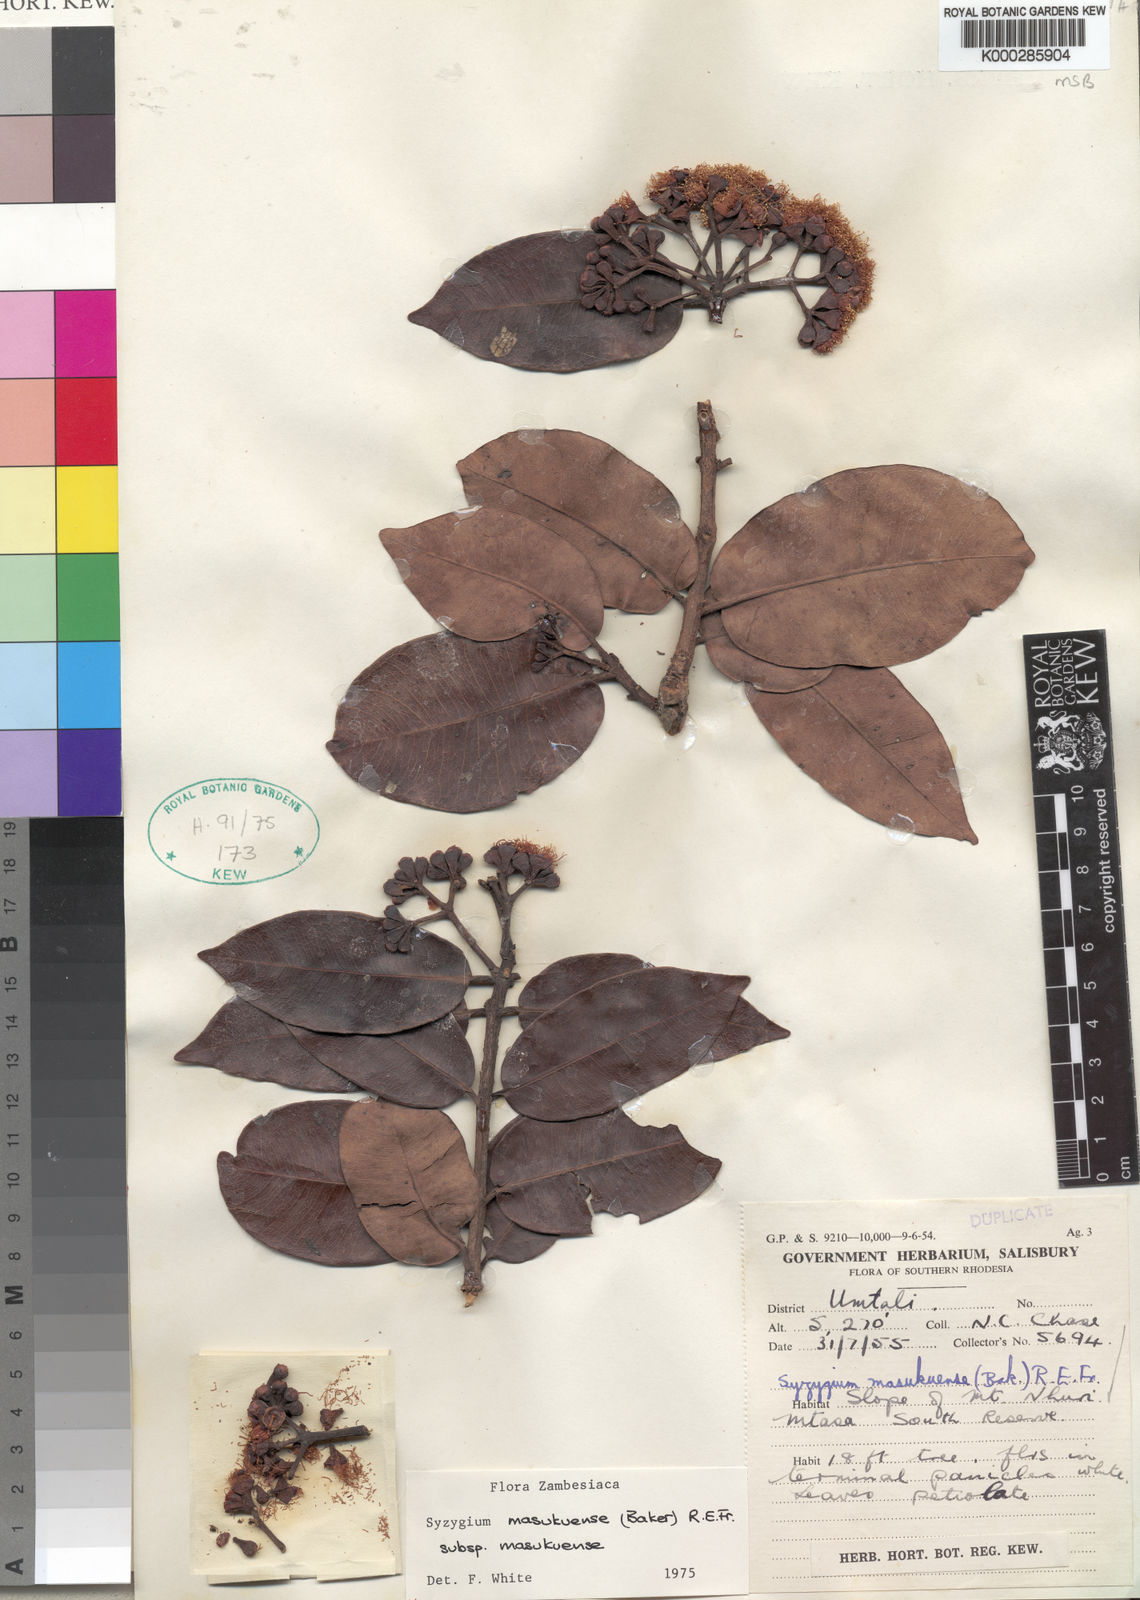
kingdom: Plantae
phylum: Tracheophyta
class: Magnoliopsida
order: Myrtales
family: Myrtaceae
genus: Syzygium
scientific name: Syzygium masukuense
